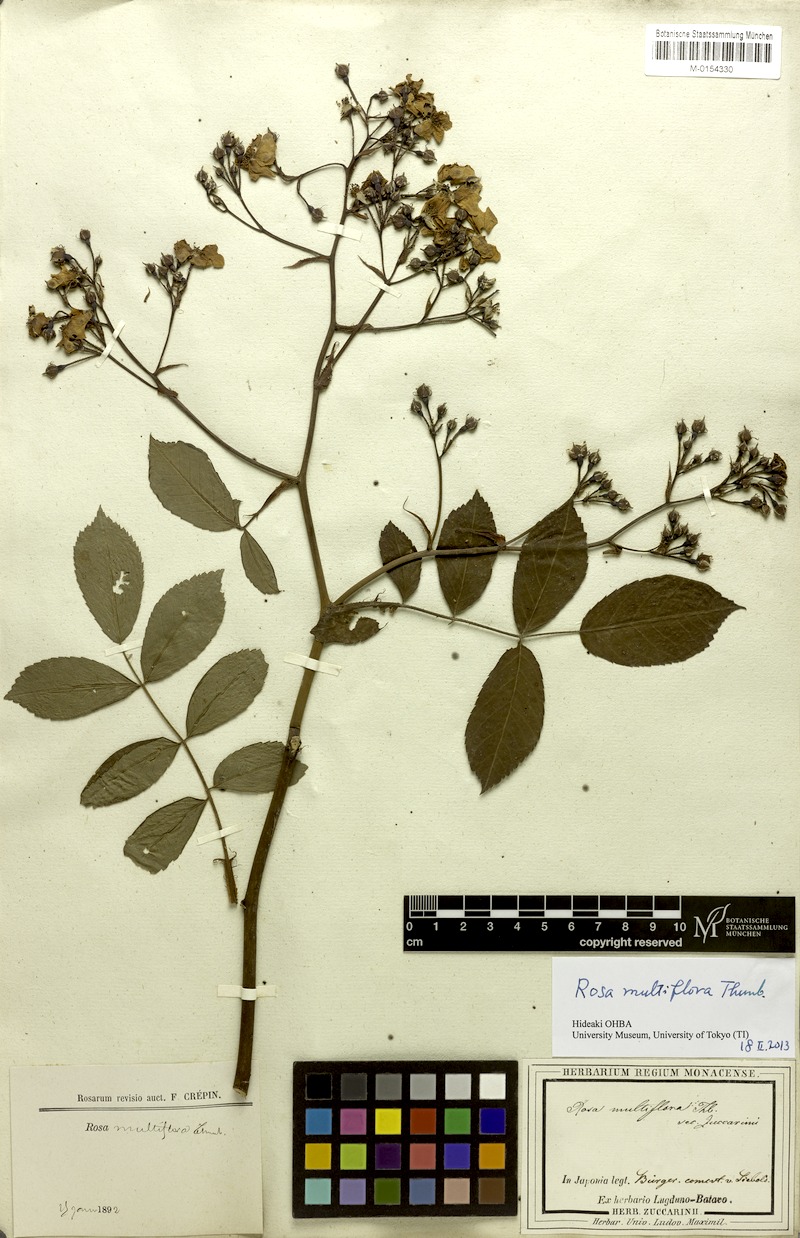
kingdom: Plantae
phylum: Tracheophyta
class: Magnoliopsida
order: Rosales
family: Rosaceae
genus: Rosa
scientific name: Rosa multiflora
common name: Multiflora rose
